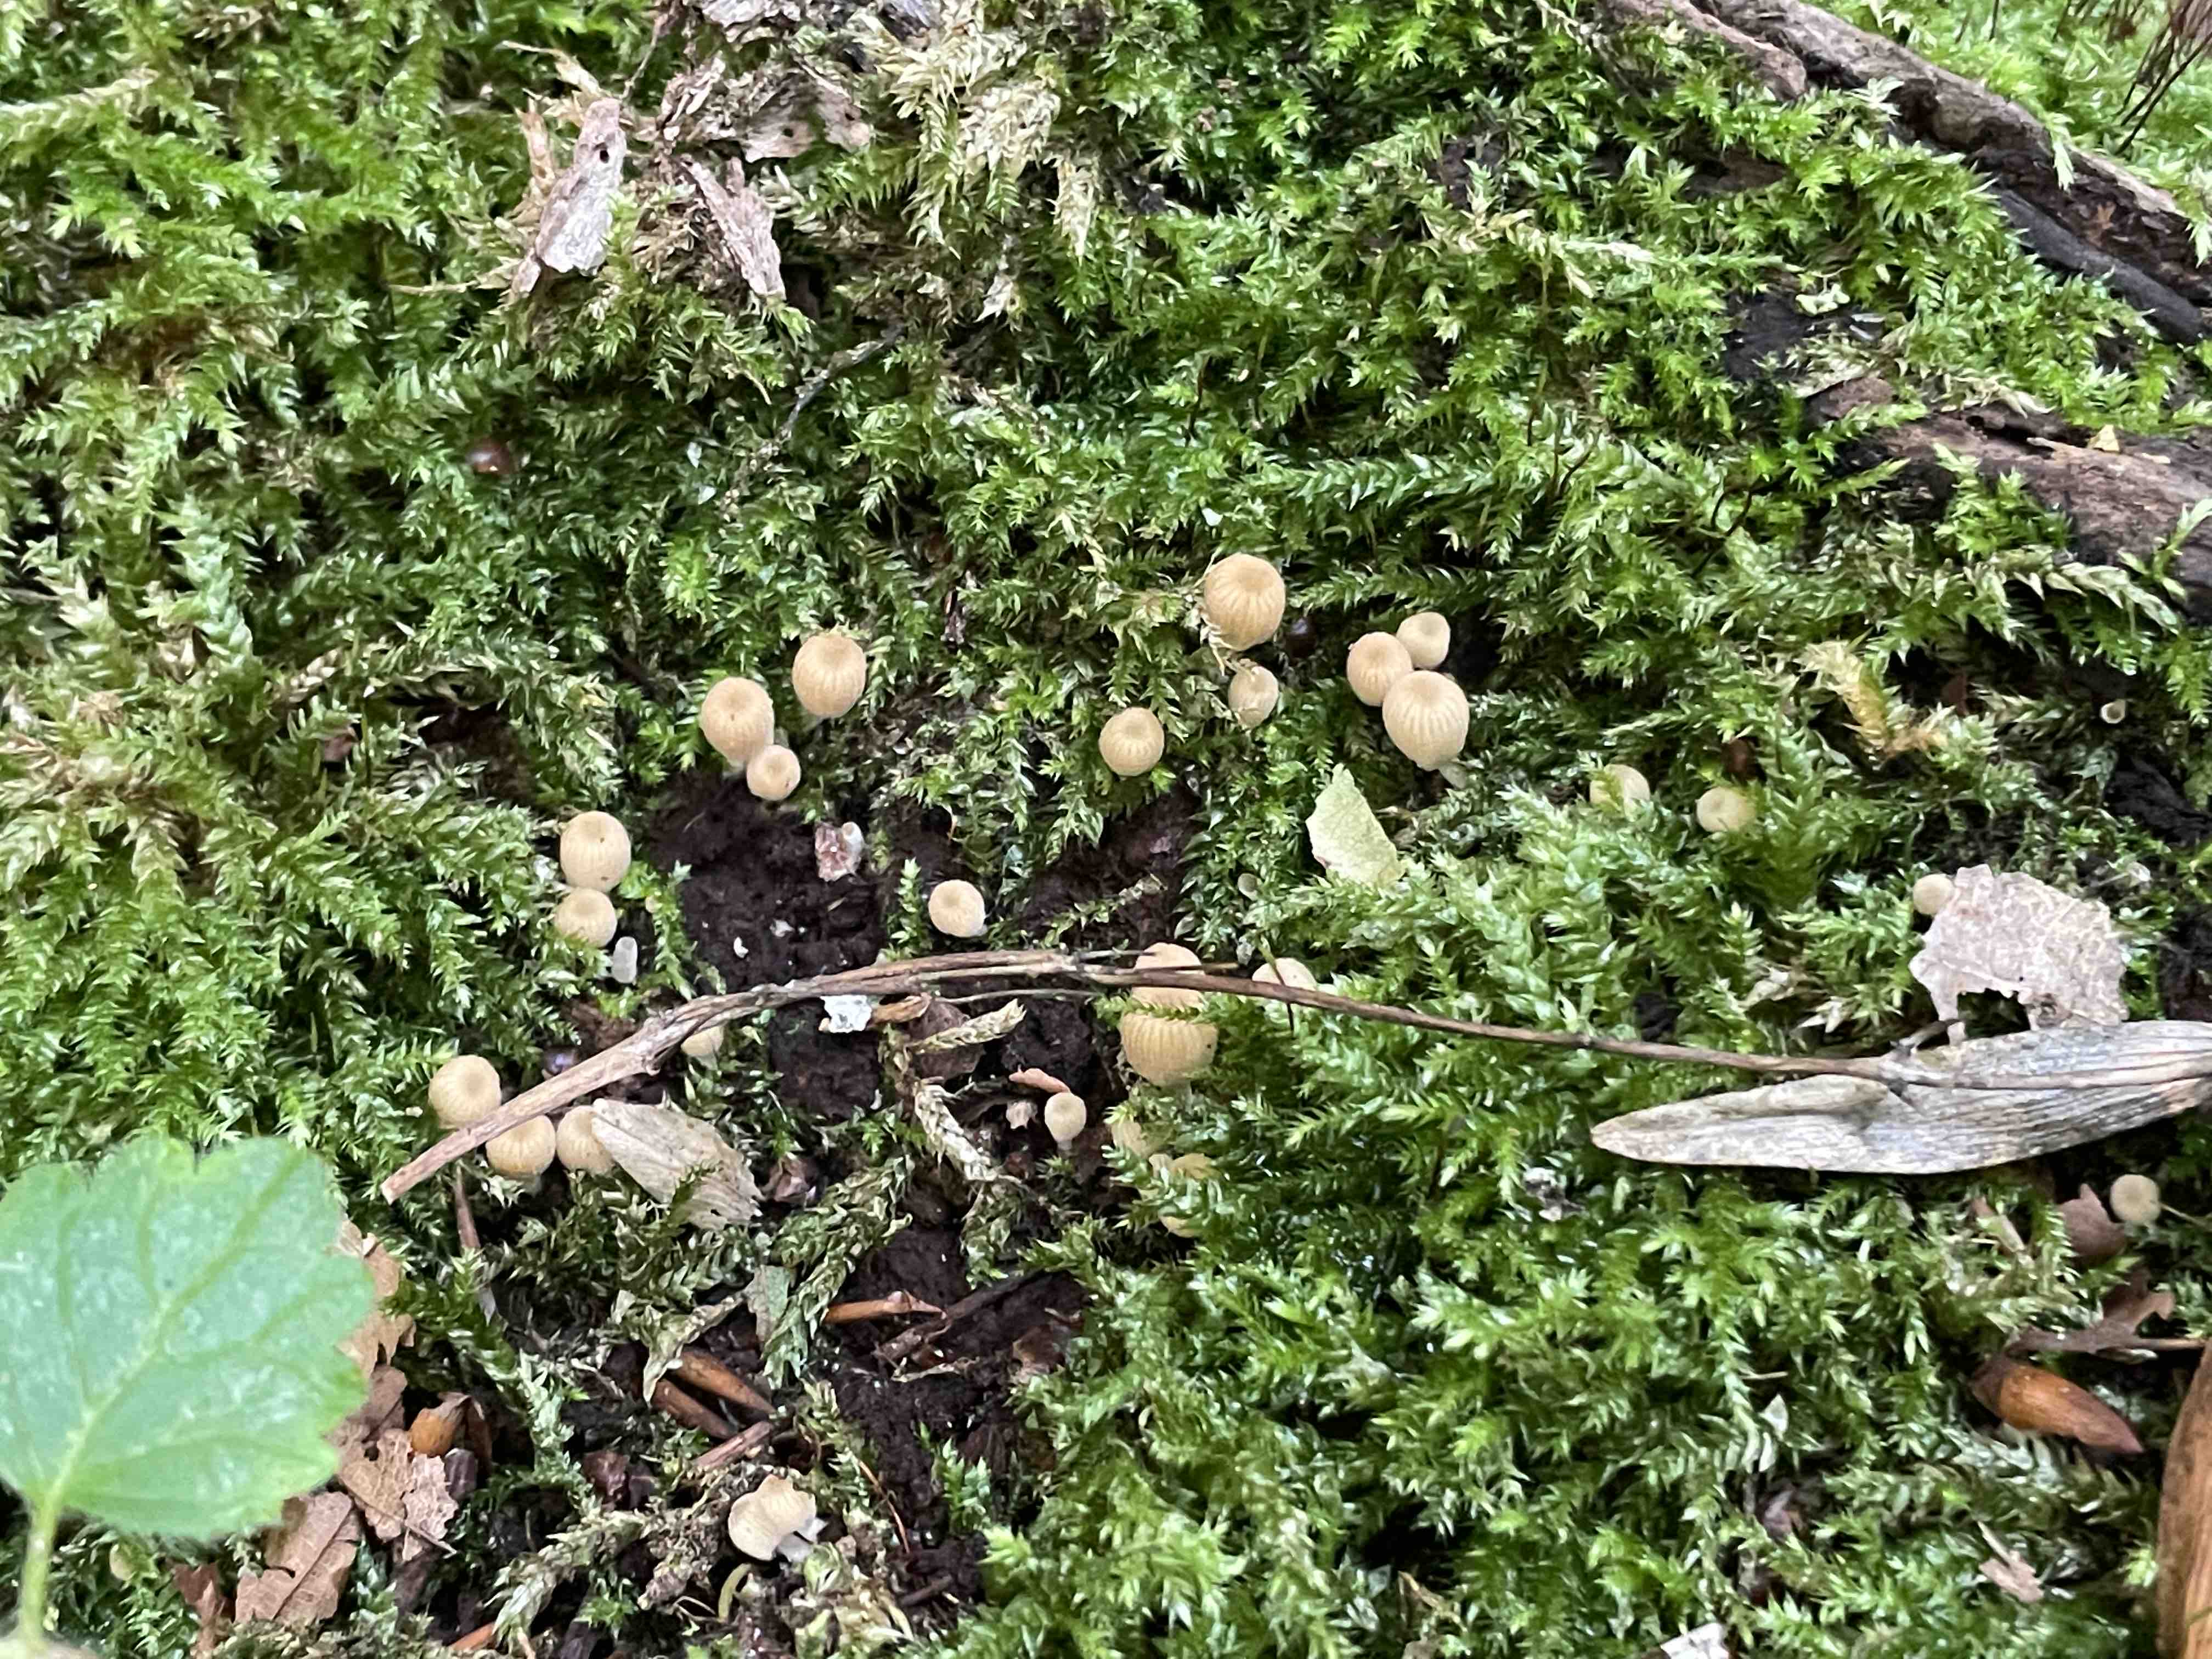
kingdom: Fungi
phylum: Basidiomycota
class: Agaricomycetes
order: Agaricales
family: Psathyrellaceae
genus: Coprinellus
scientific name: Coprinellus disseminatus
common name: bredsået blækhat
